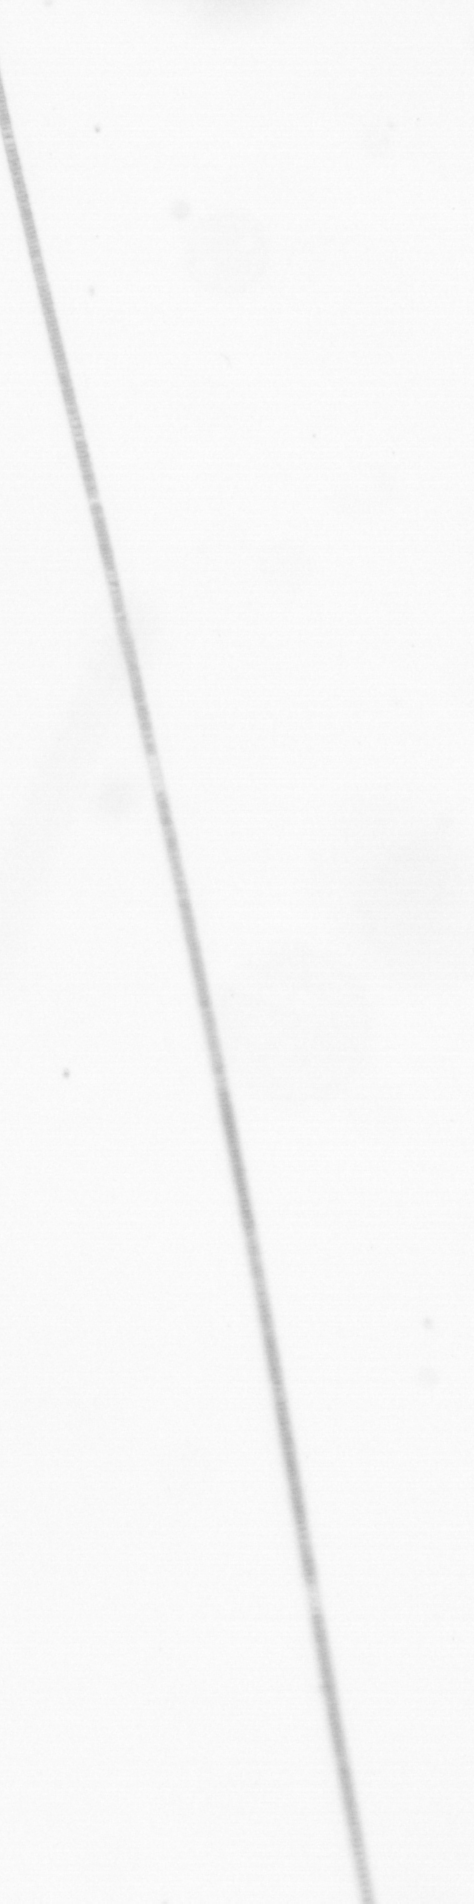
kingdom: Chromista
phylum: Ochrophyta
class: Bacillariophyceae
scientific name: Bacillariophyceae
